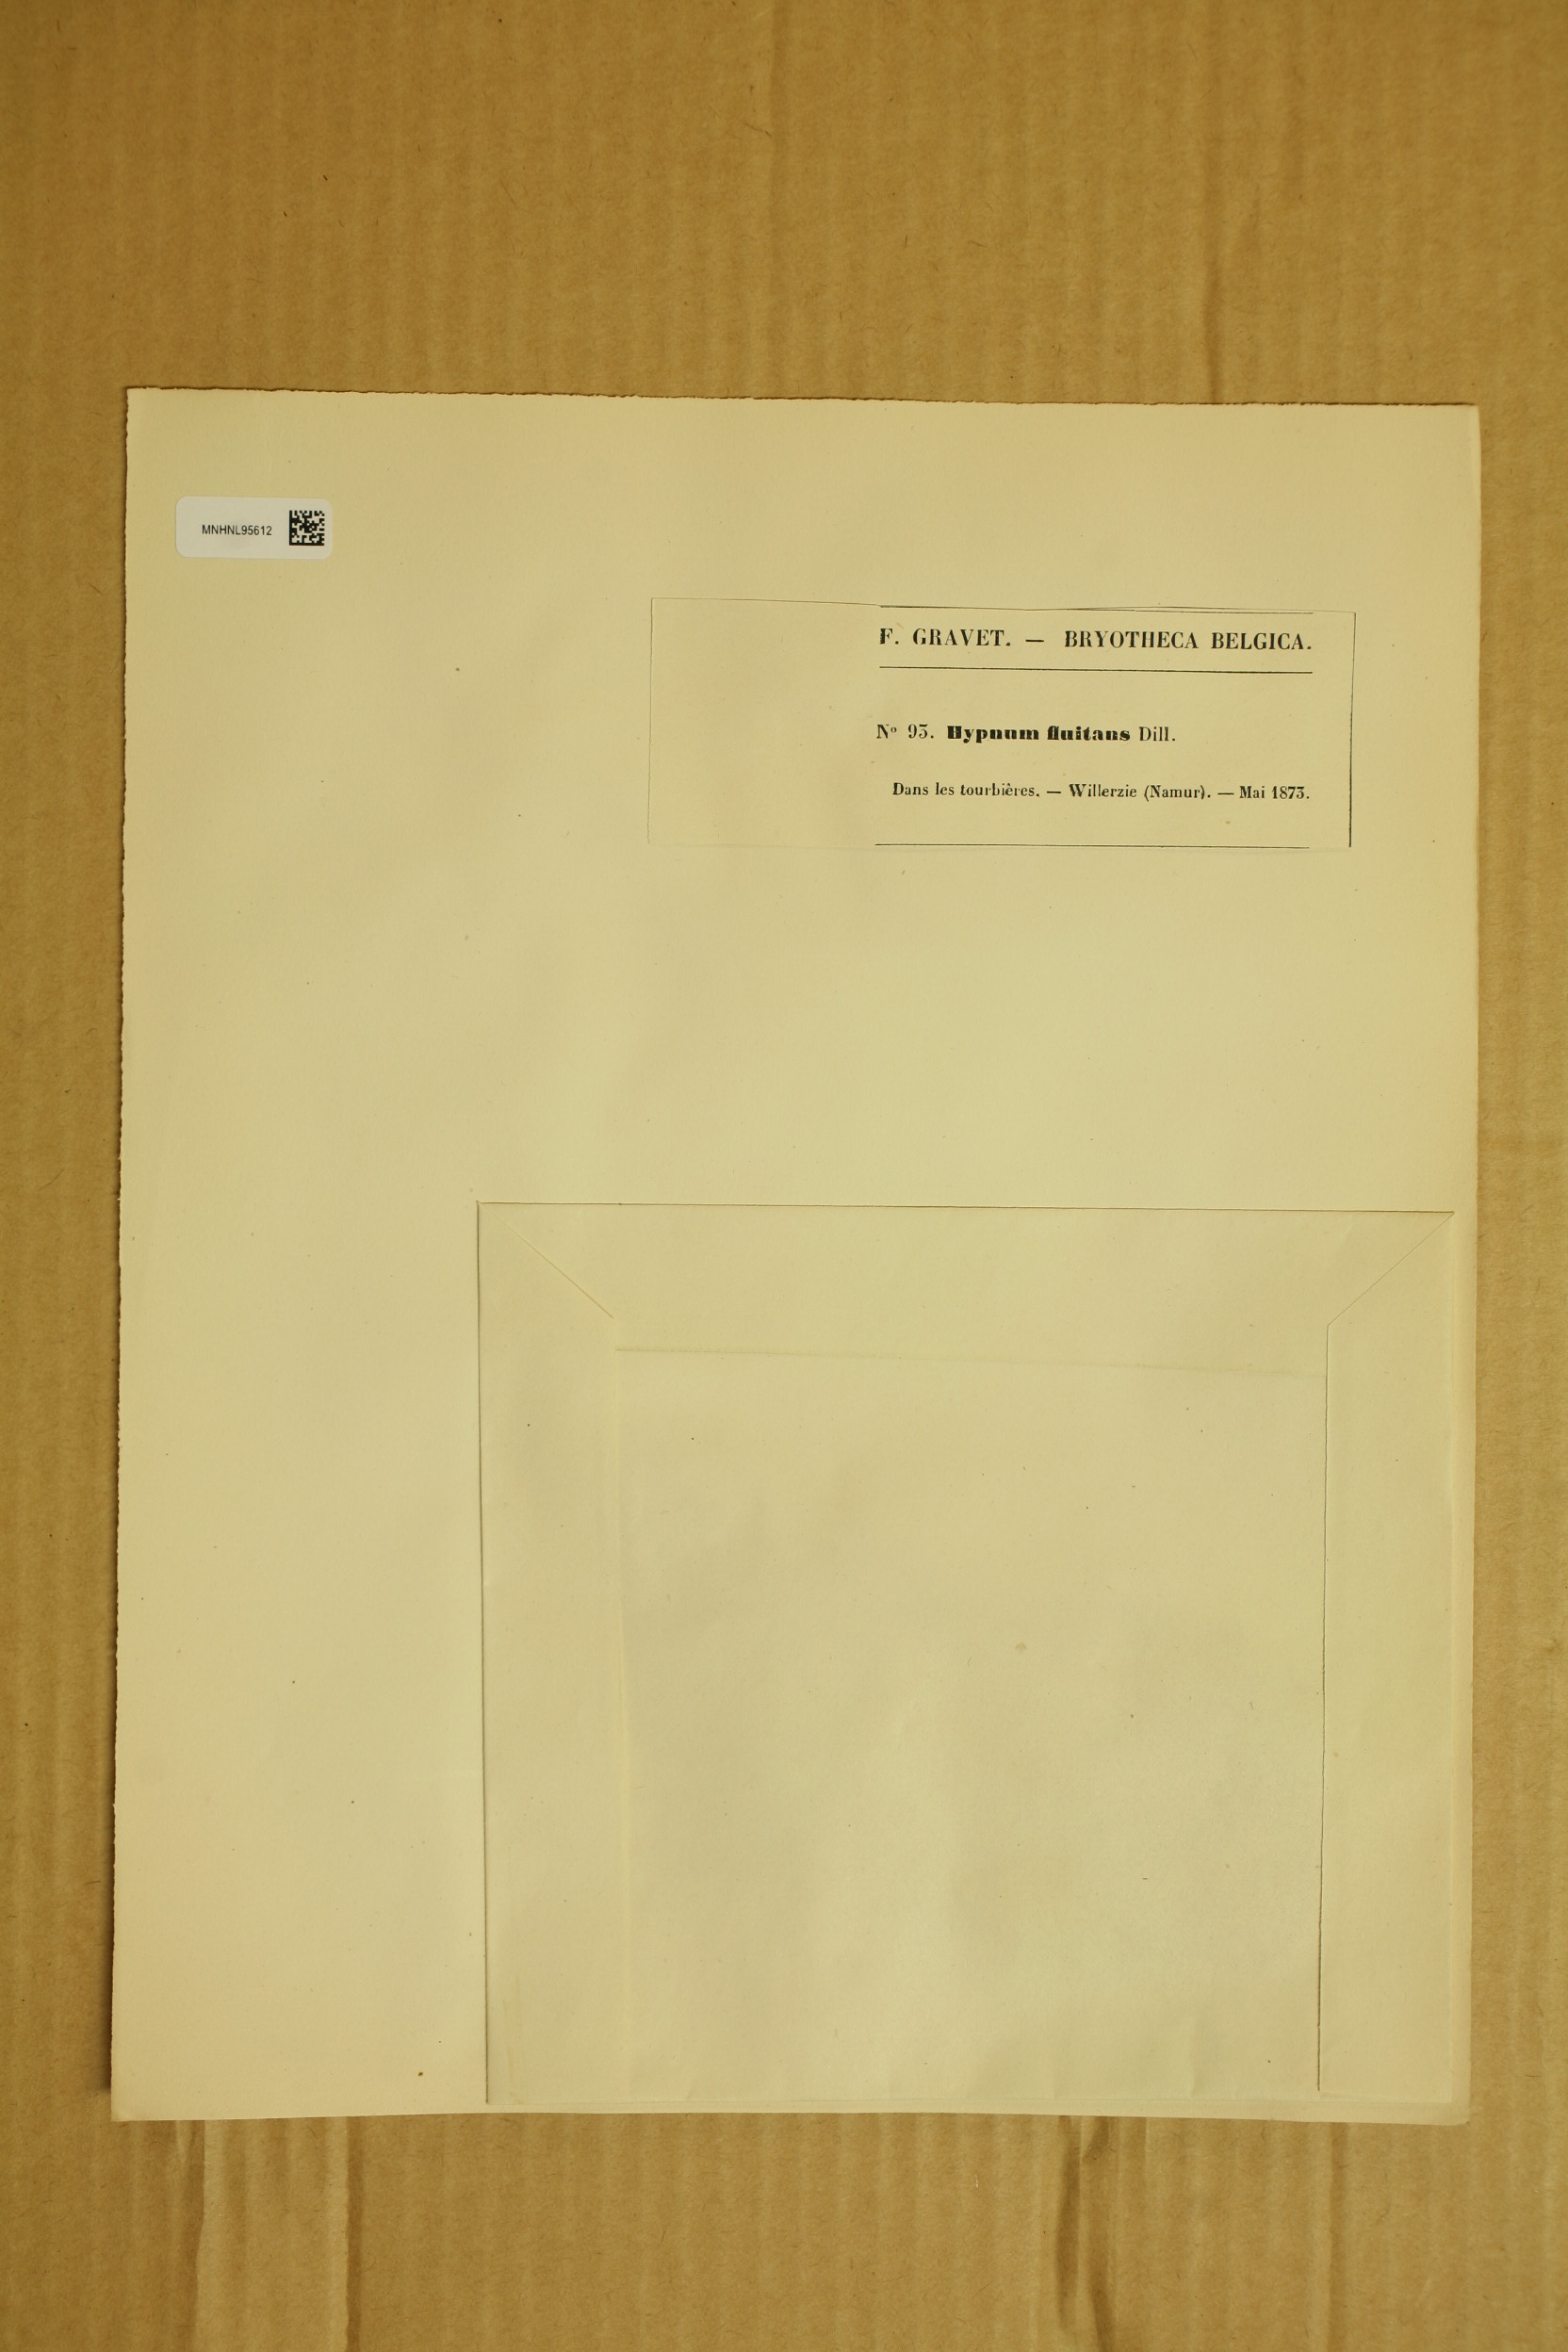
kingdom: Plantae
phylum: Bryophyta
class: Bryopsida
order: Hypnales
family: Calliergonaceae
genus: Warnstorfia
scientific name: Warnstorfia fluitans
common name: Floating hook moss
